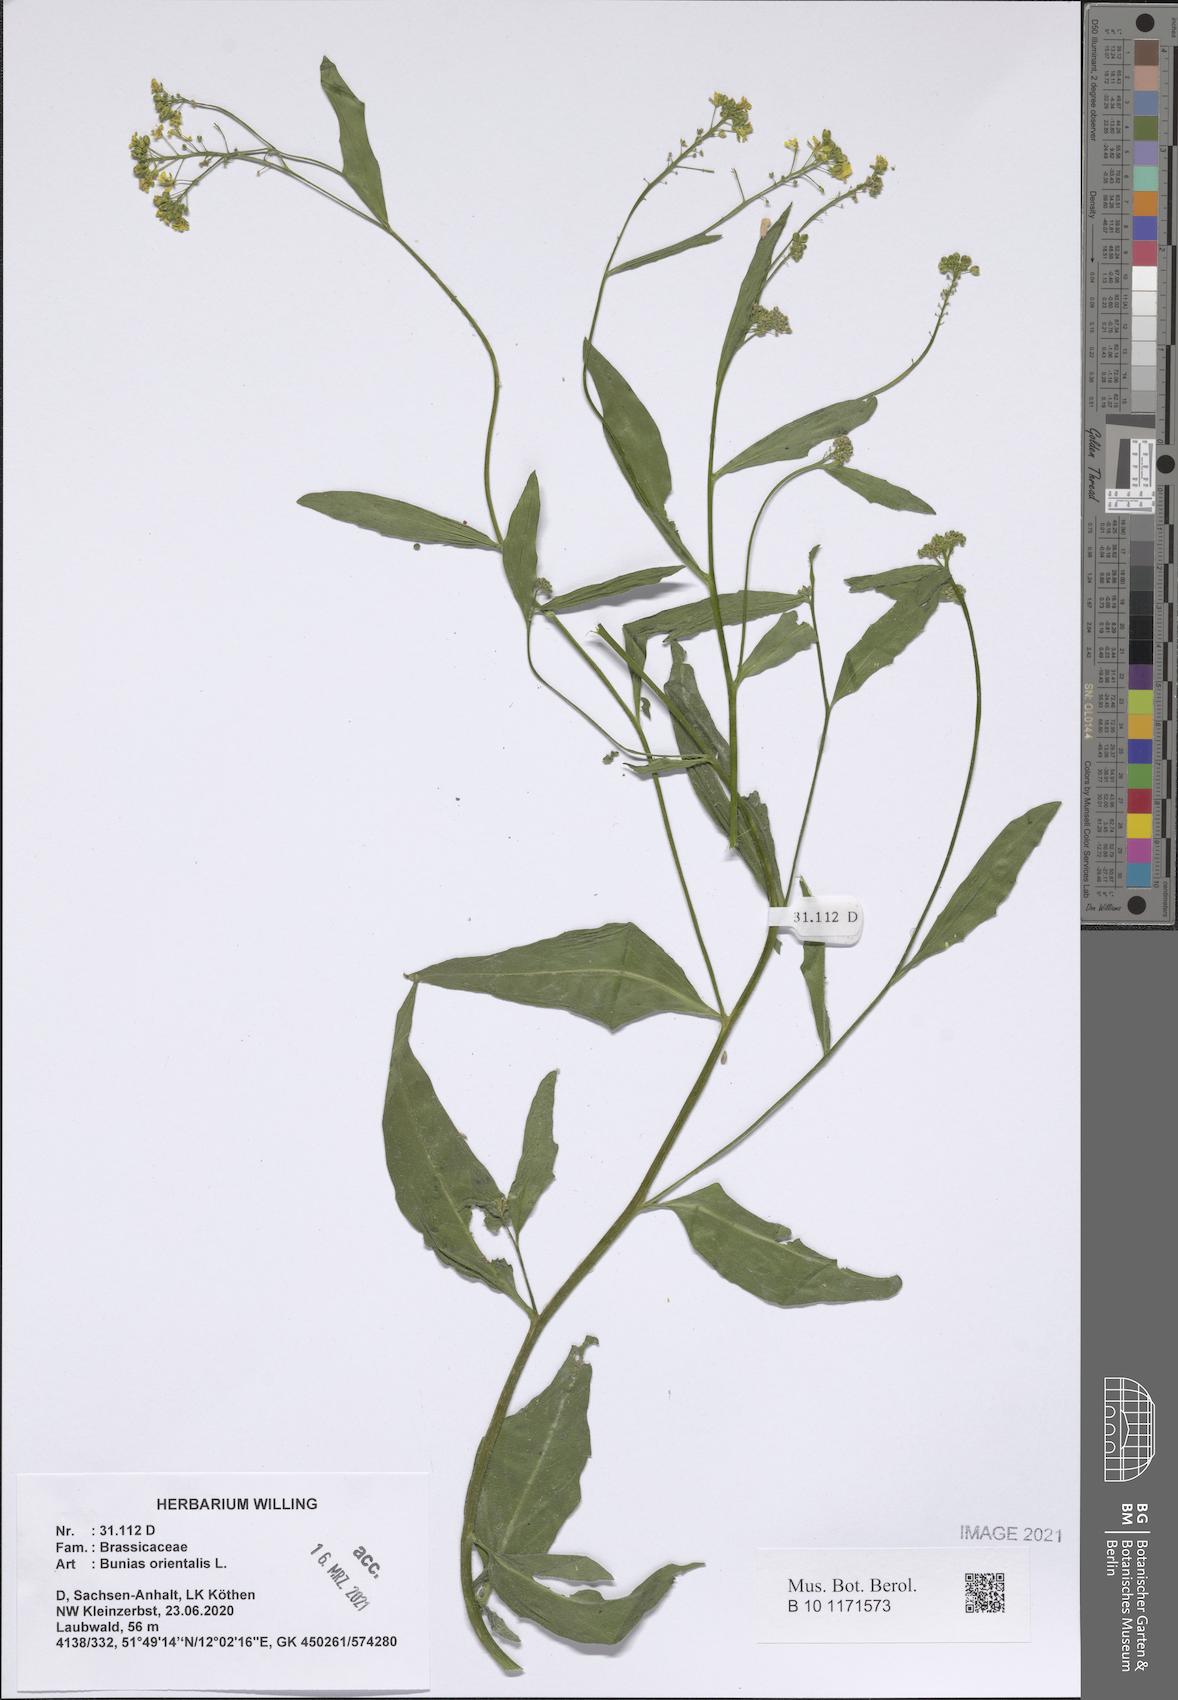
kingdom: Plantae
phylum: Tracheophyta
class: Magnoliopsida
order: Brassicales
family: Brassicaceae
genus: Bunias
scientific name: Bunias orientalis
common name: Warty-cabbage
